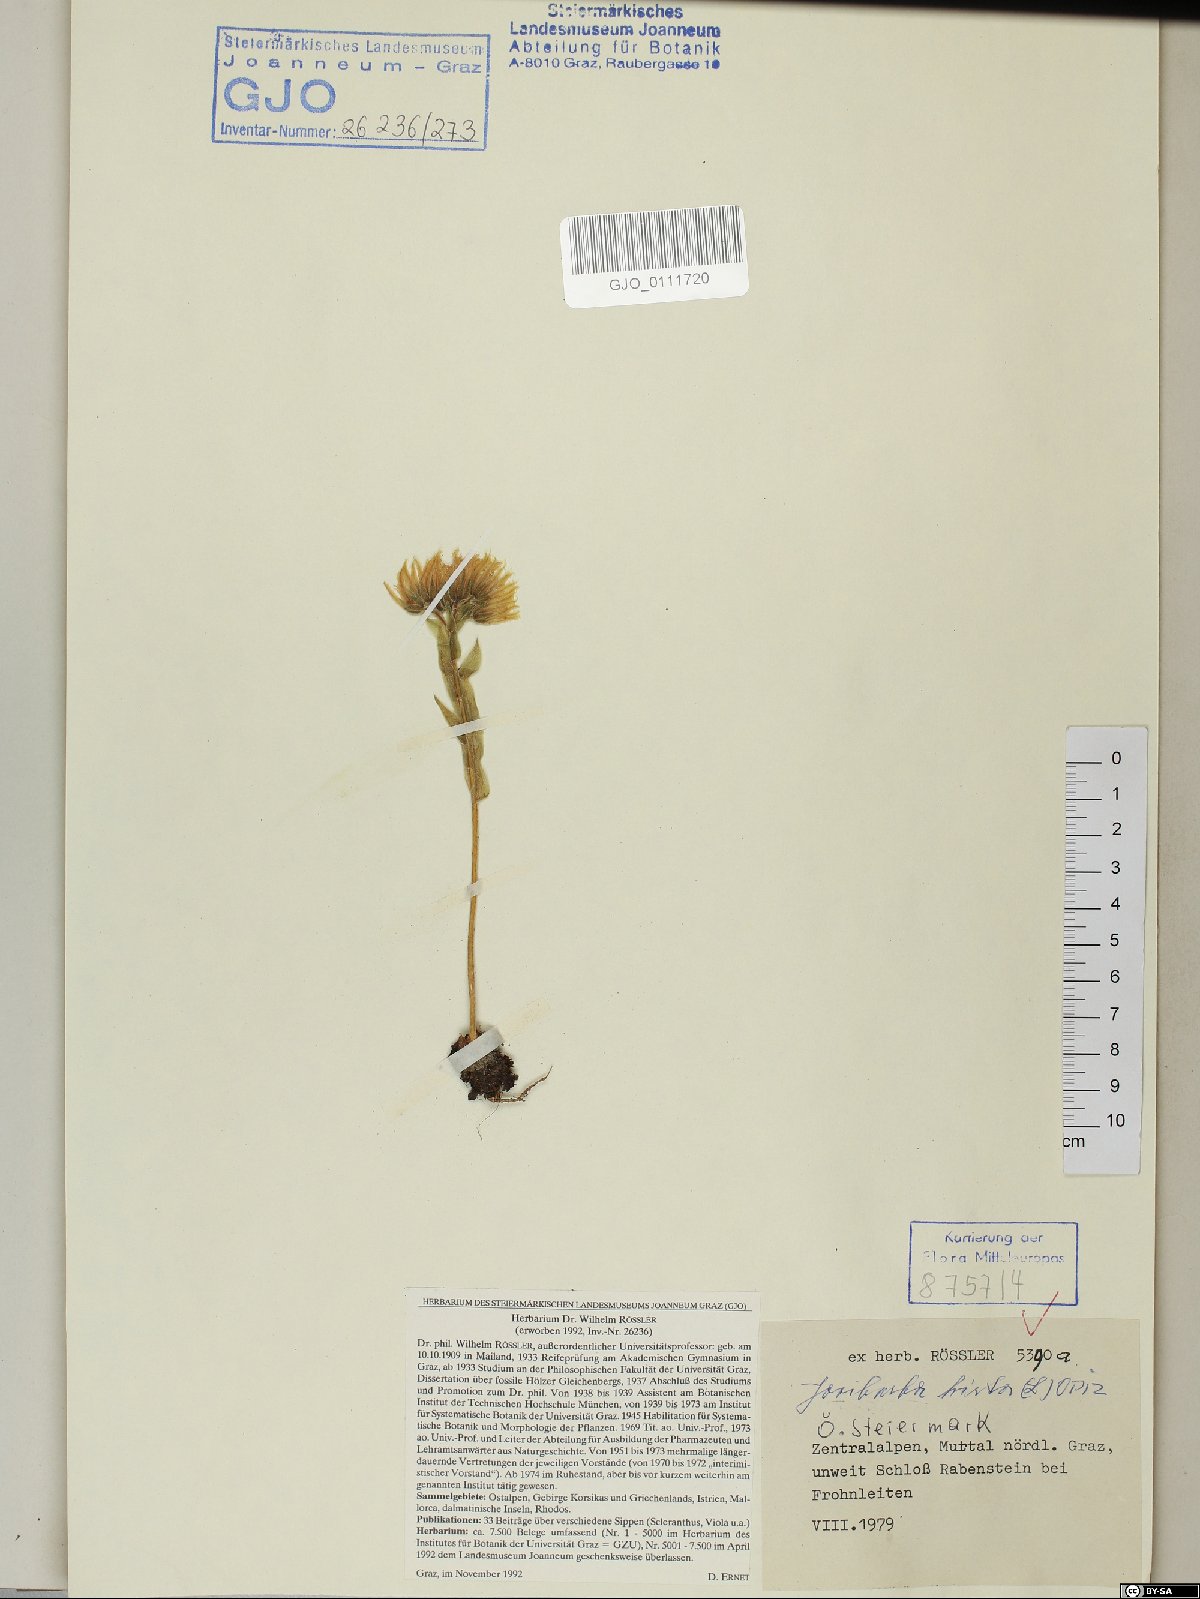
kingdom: Plantae
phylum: Tracheophyta
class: Magnoliopsida
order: Saxifragales
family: Crassulaceae
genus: Sempervivum
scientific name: Sempervivum globiferum
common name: Rolling hen-and-chicks
